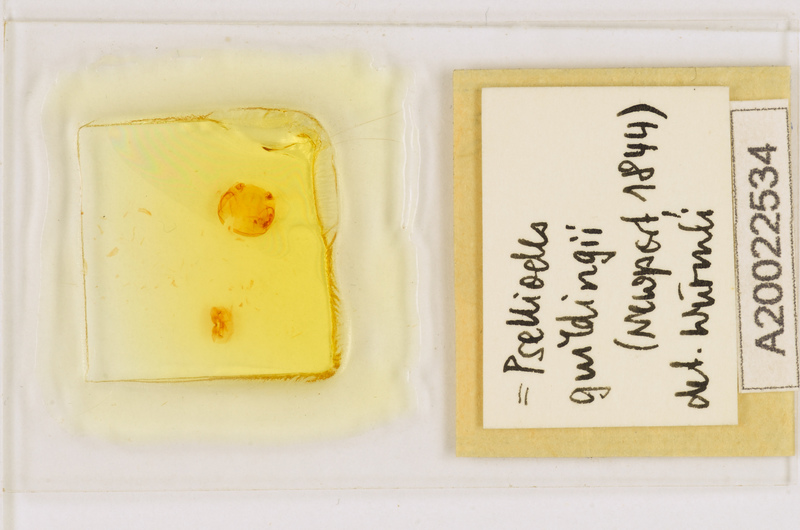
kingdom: Animalia
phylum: Arthropoda
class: Chilopoda
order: Scutigeromorpha
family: Pselliodidae
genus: Sphendononema
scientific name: Sphendononema guildingii
